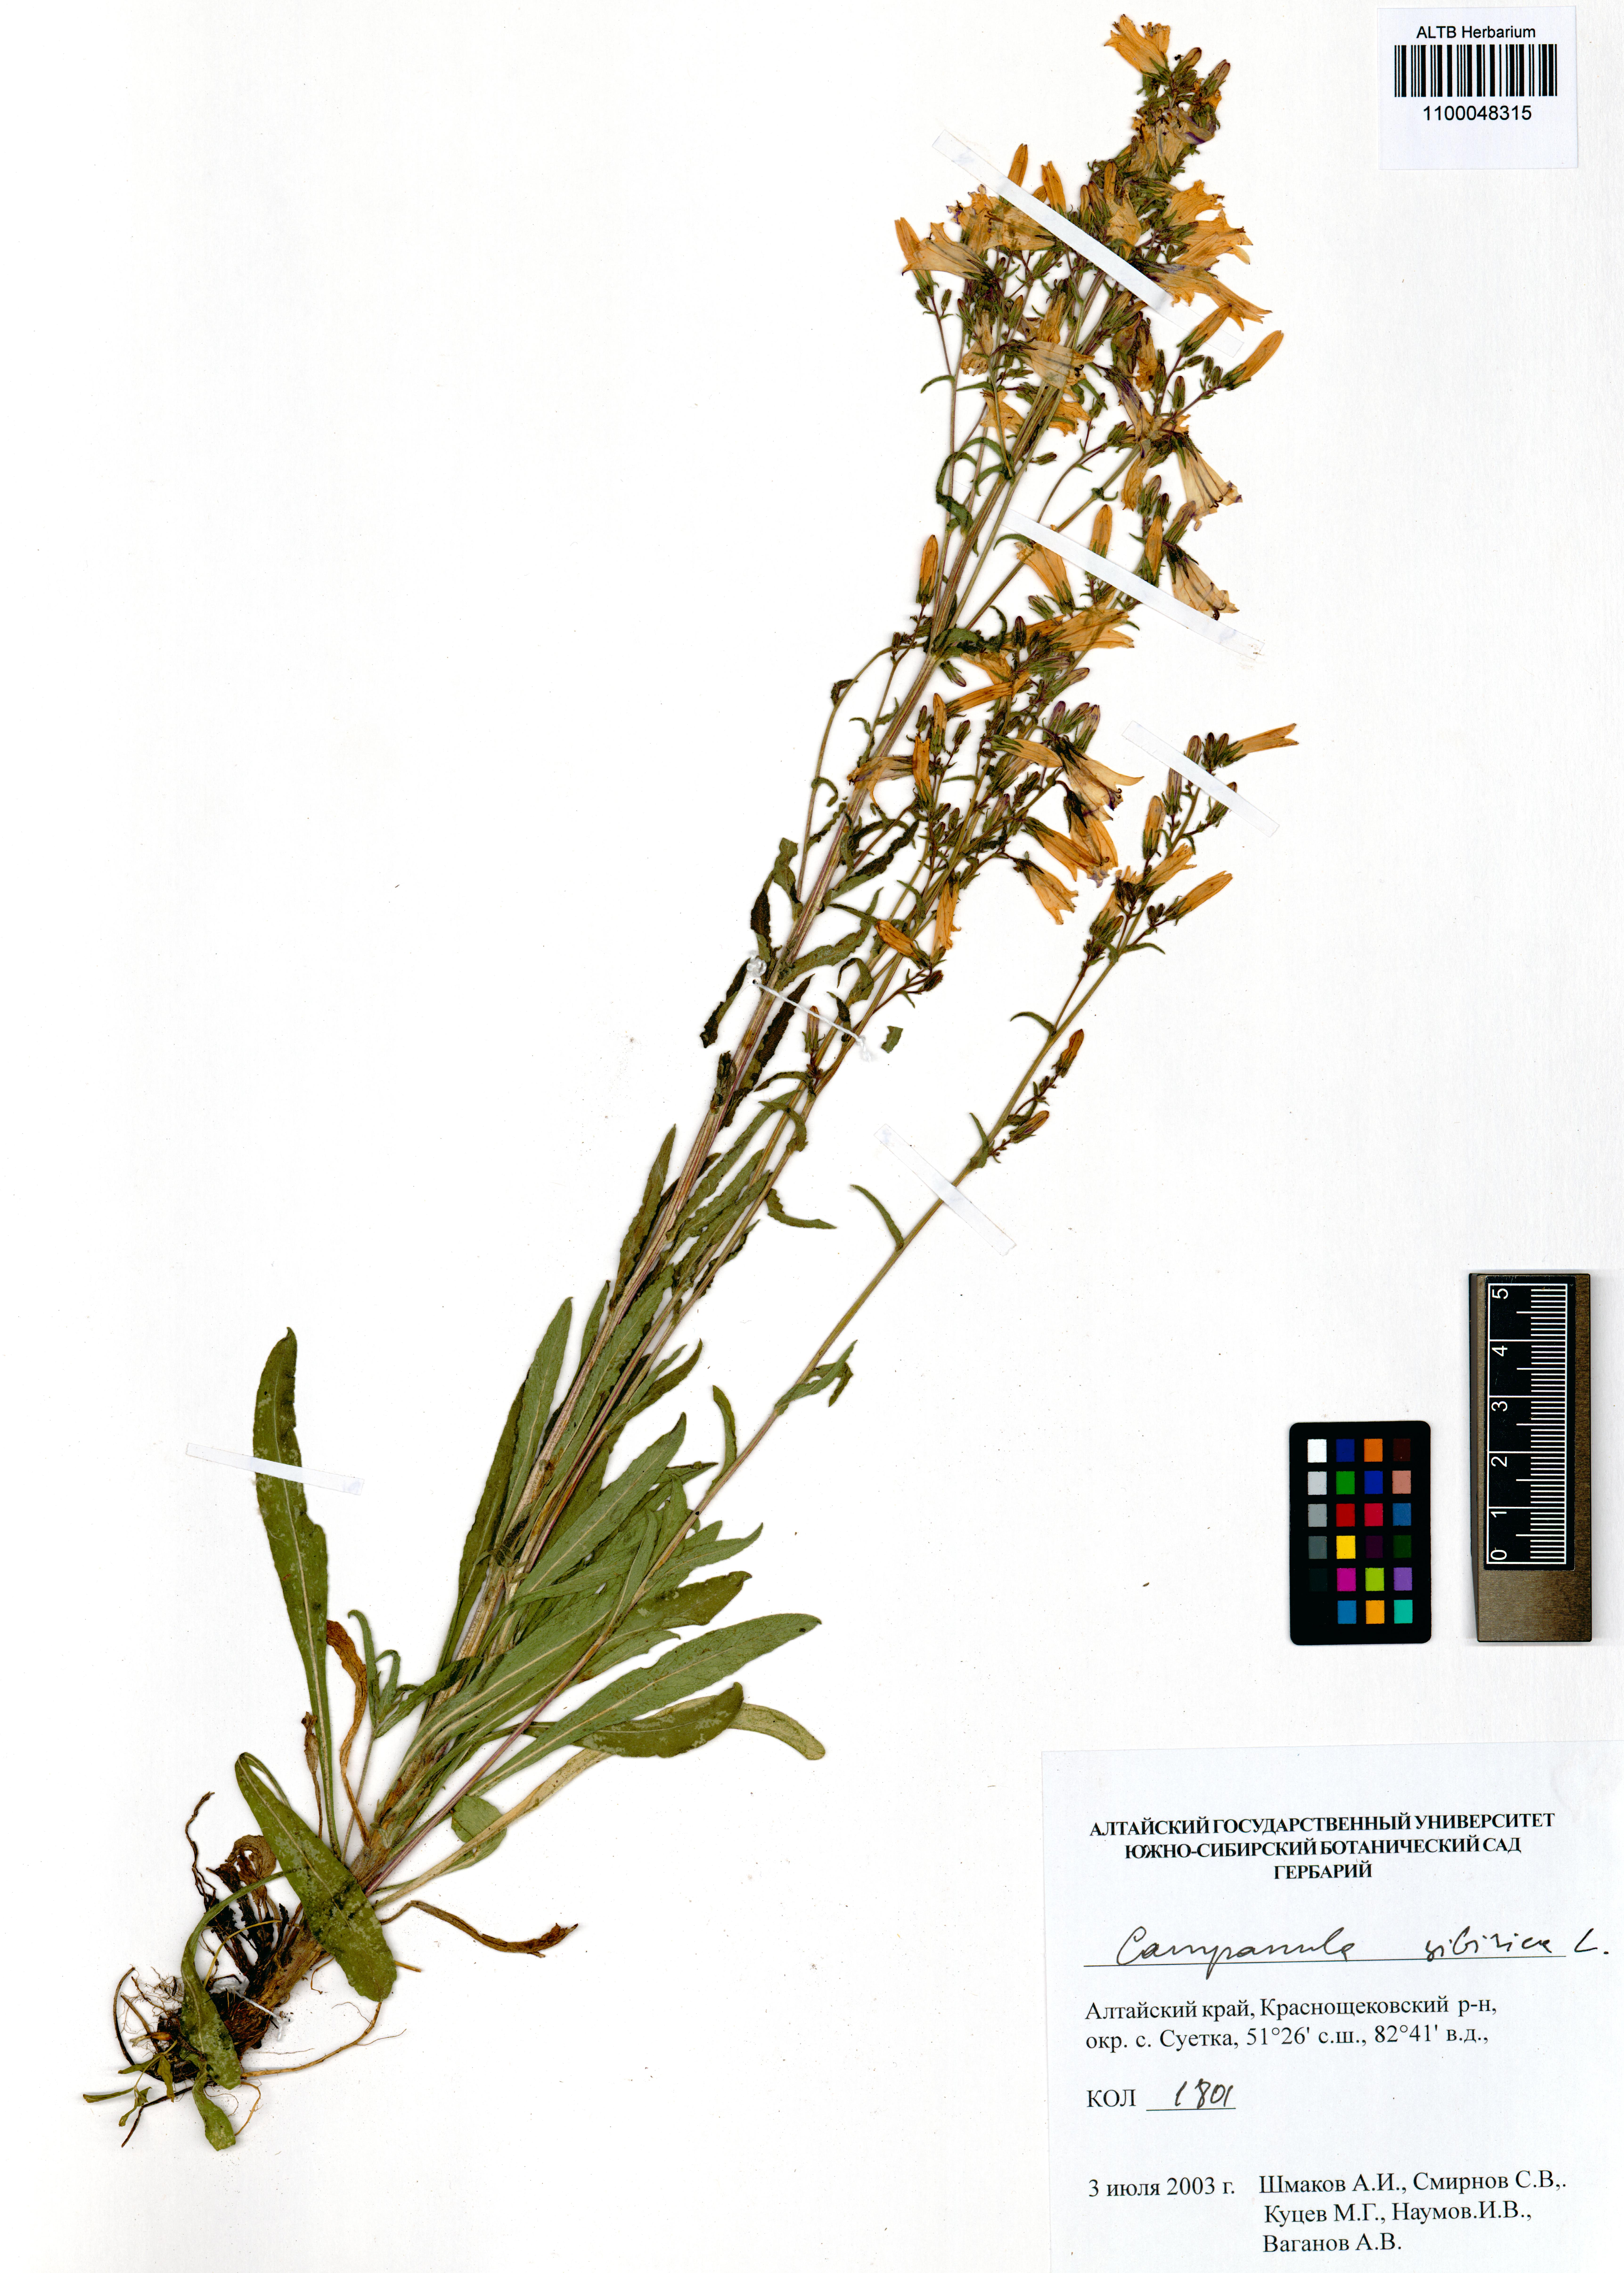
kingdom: Plantae
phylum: Tracheophyta
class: Magnoliopsida
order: Asterales
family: Campanulaceae
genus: Campanula
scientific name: Campanula sibirica
